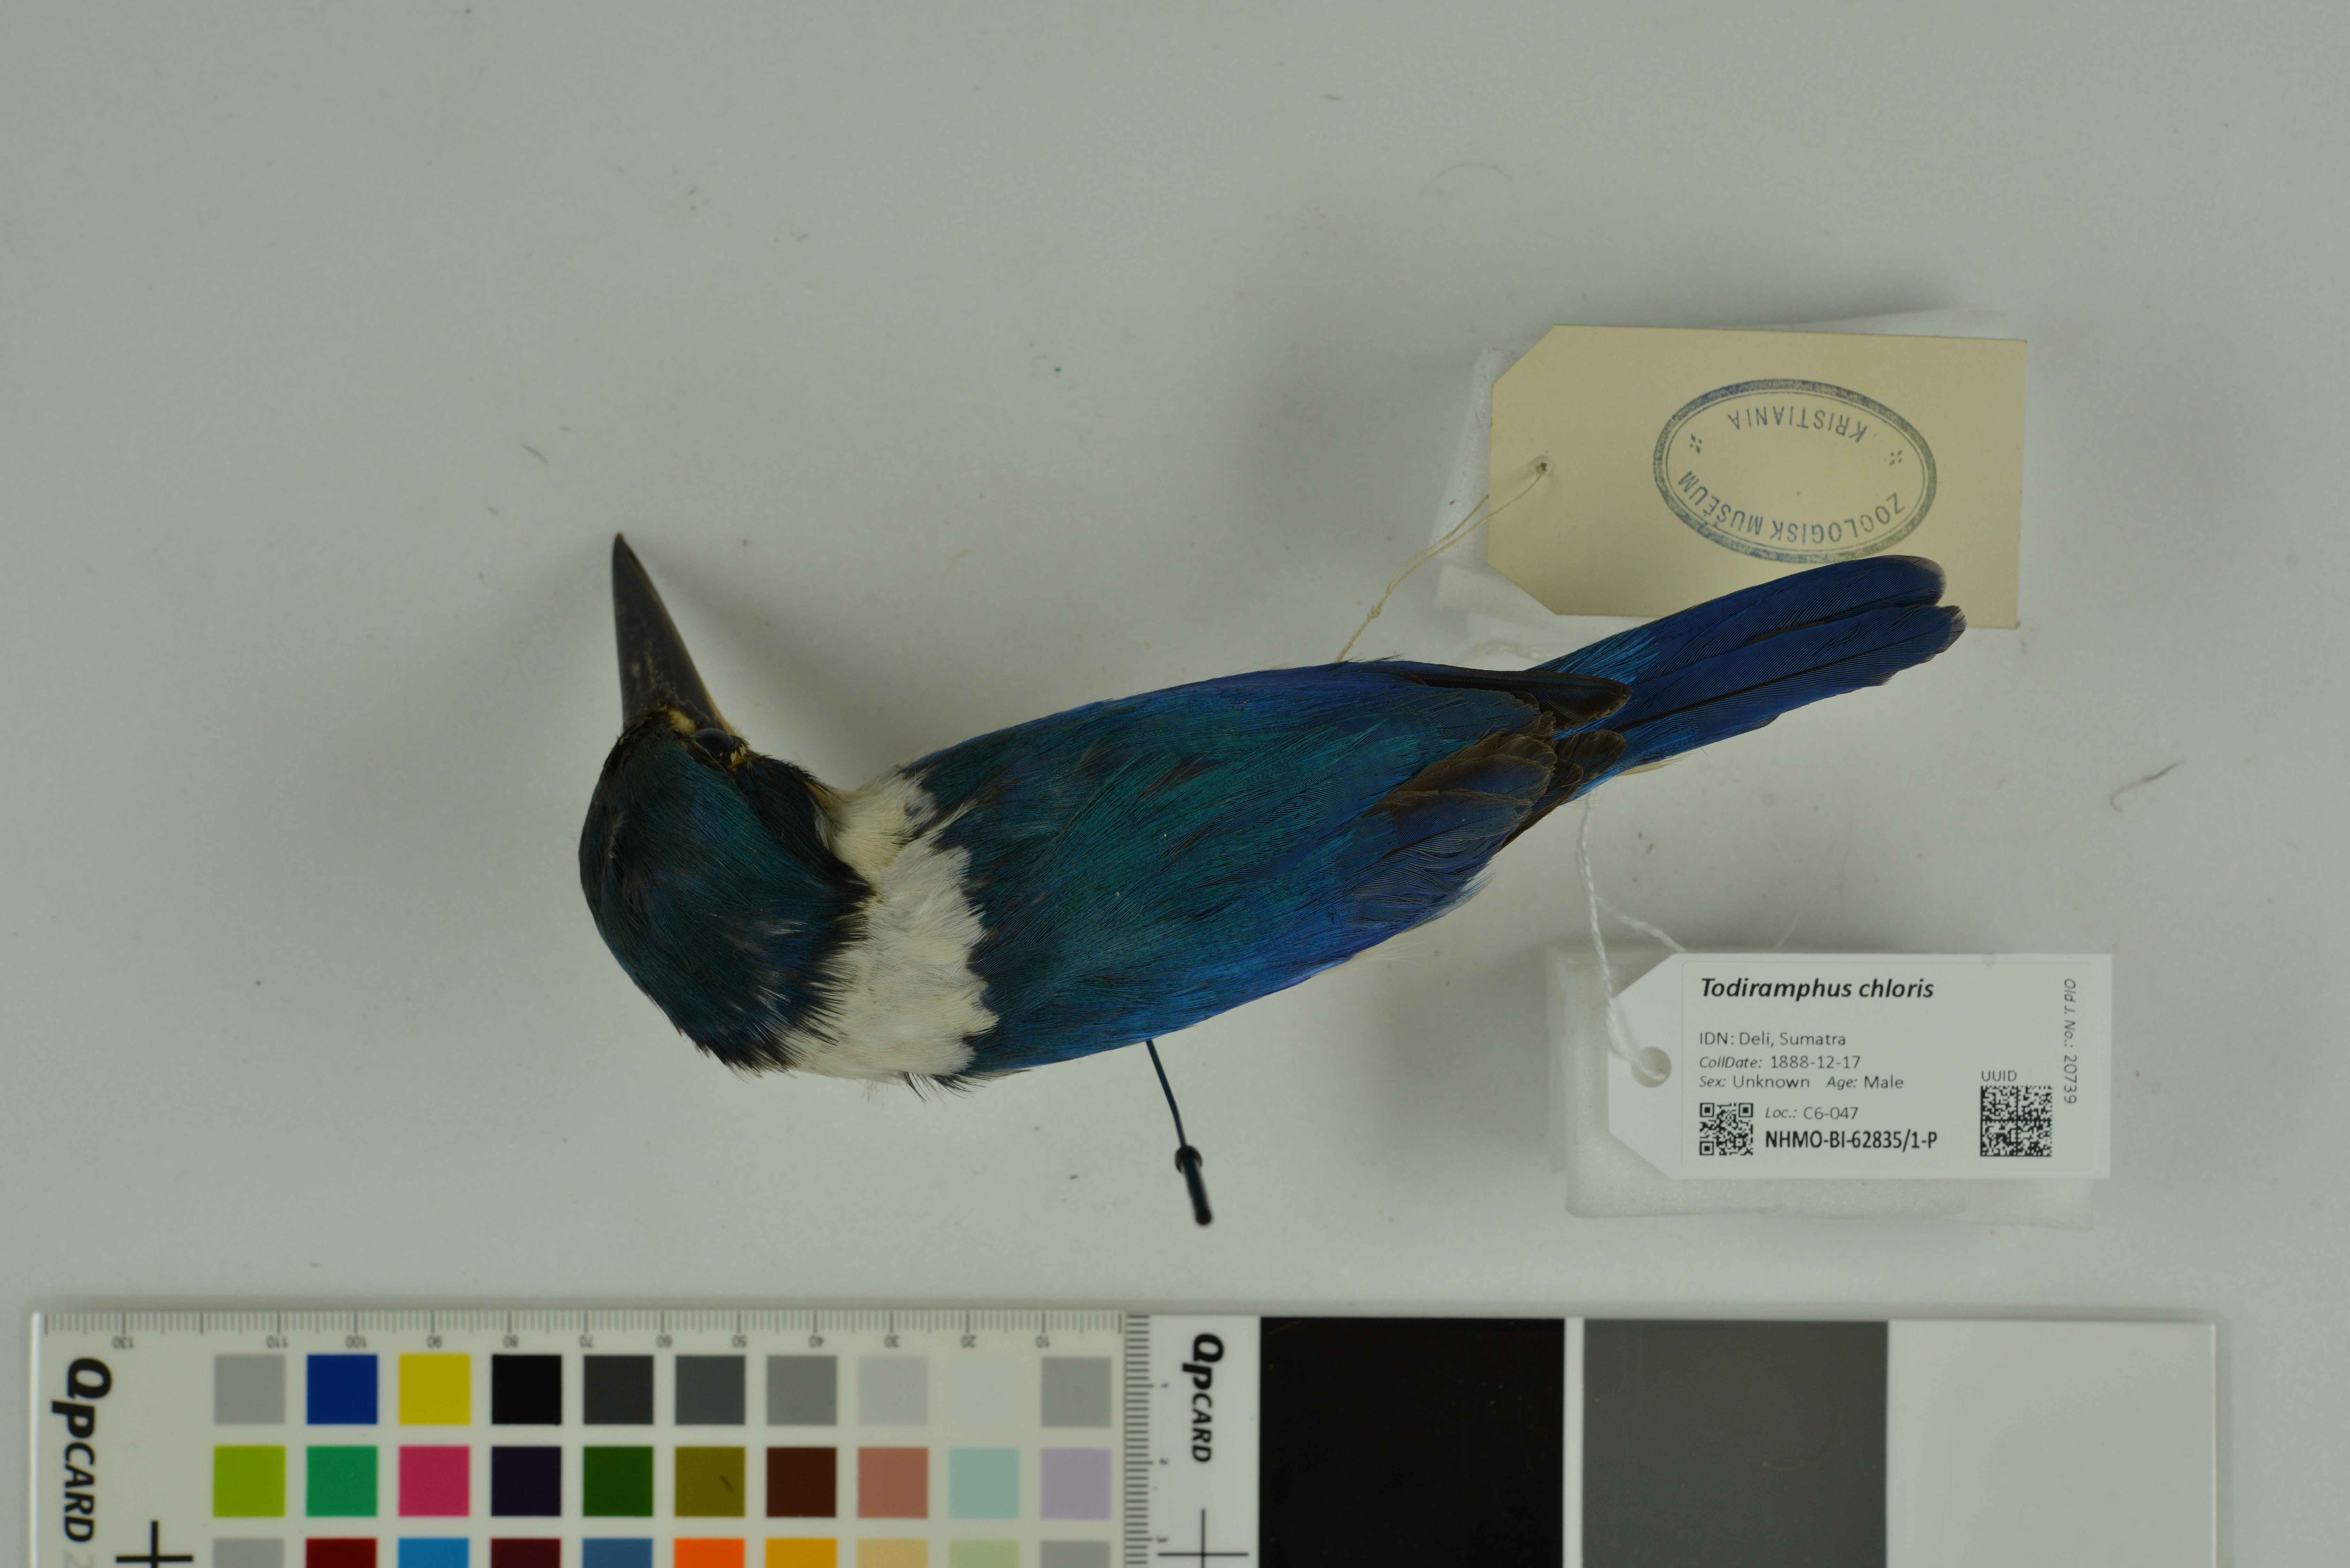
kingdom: Animalia
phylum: Chordata
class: Aves
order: Coraciiformes
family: Alcedinidae
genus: Todiramphus
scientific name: Todiramphus chloris
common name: Collared kingfisher
